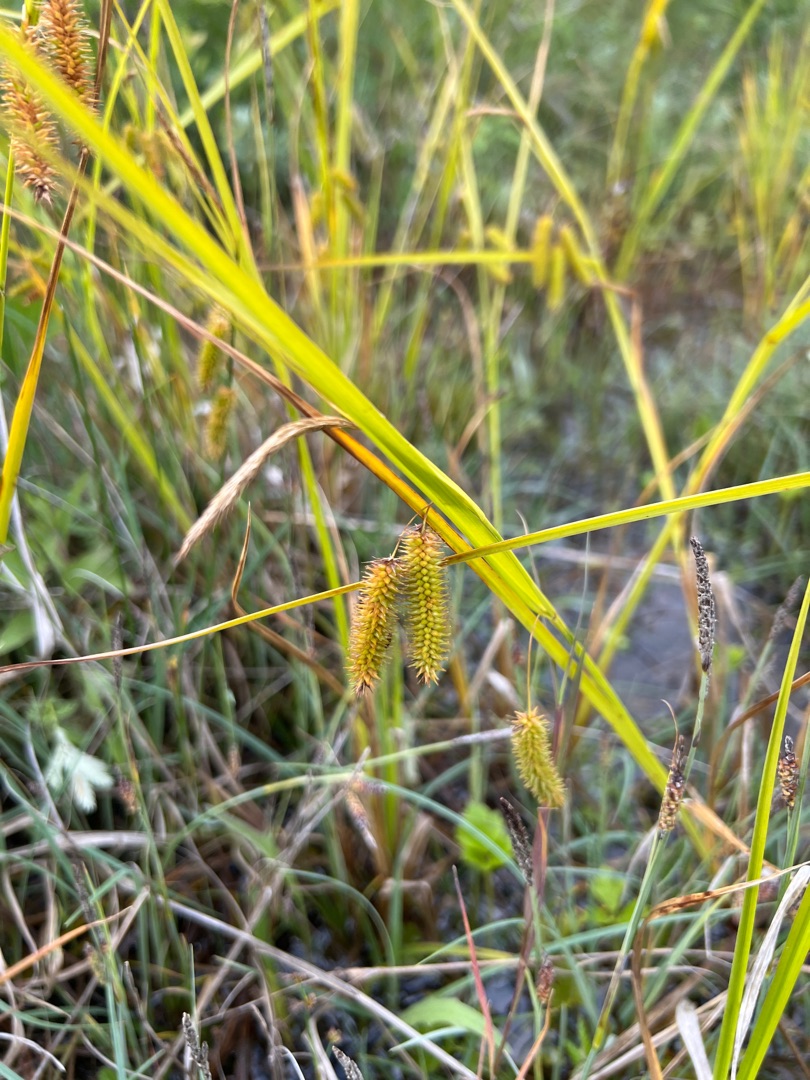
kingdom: Plantae
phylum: Tracheophyta
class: Liliopsida
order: Poales
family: Cyperaceae
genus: Carex
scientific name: Carex pseudocyperus
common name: Knippe-star
